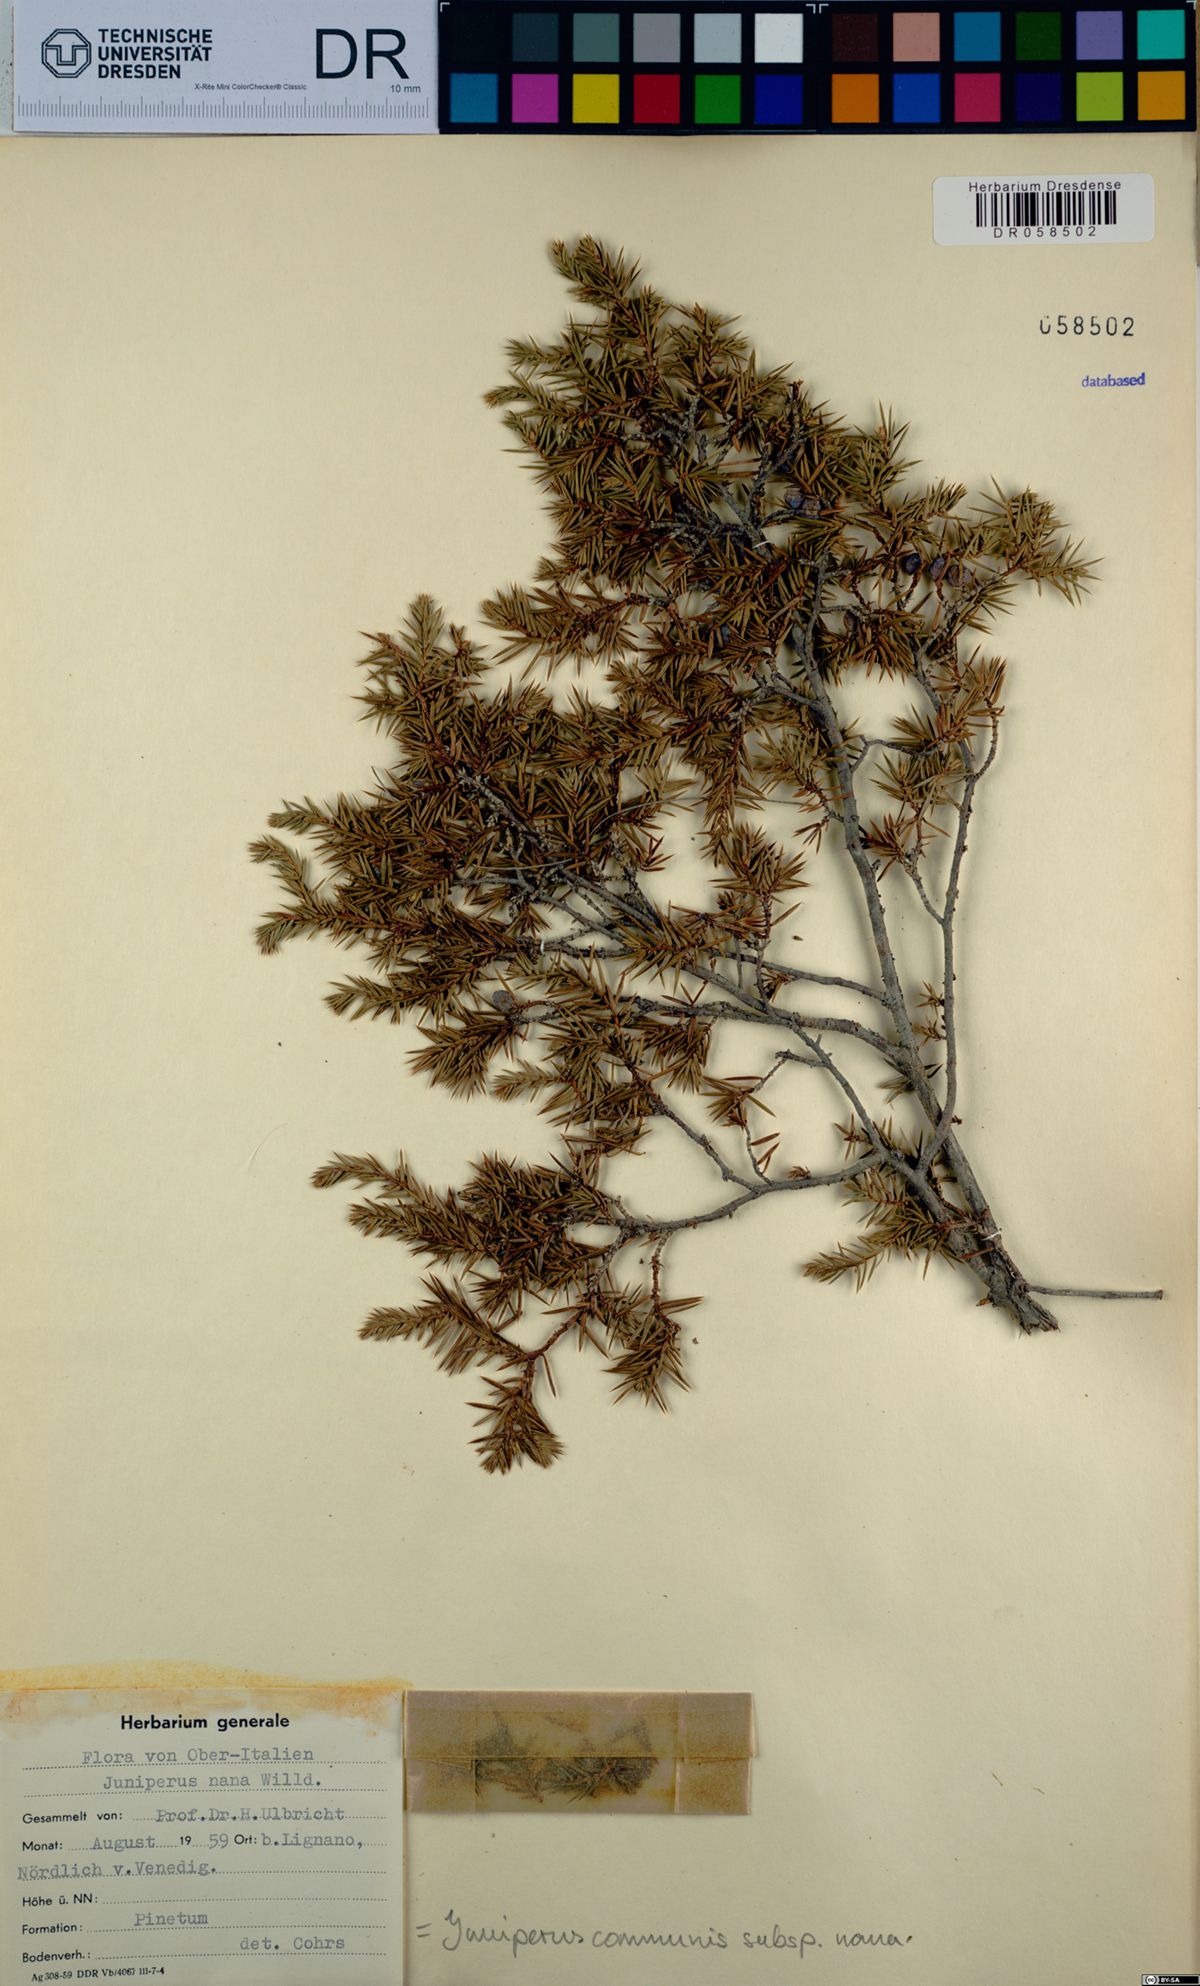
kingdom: Plantae
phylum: Tracheophyta
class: Pinopsida
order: Pinales
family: Cupressaceae
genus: Juniperus
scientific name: Juniperus communis
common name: Common juniper
